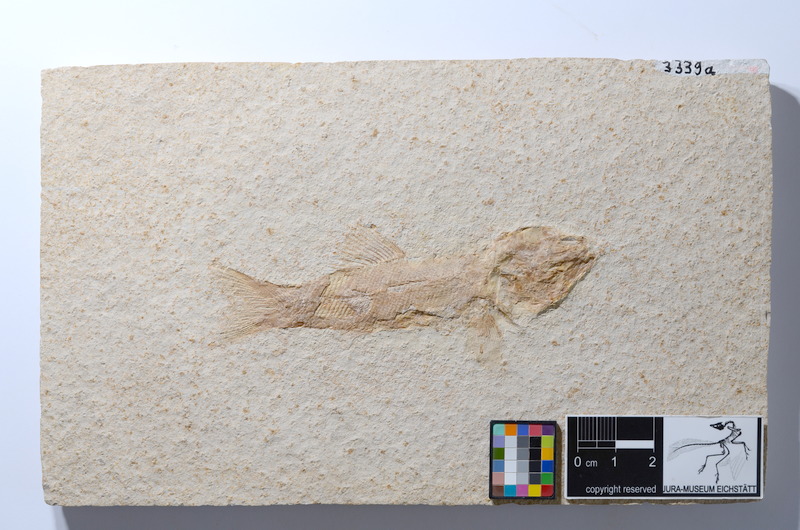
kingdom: Animalia
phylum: Chordata
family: Ophiopsiellidae
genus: Furo
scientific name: Furo longiserratus
